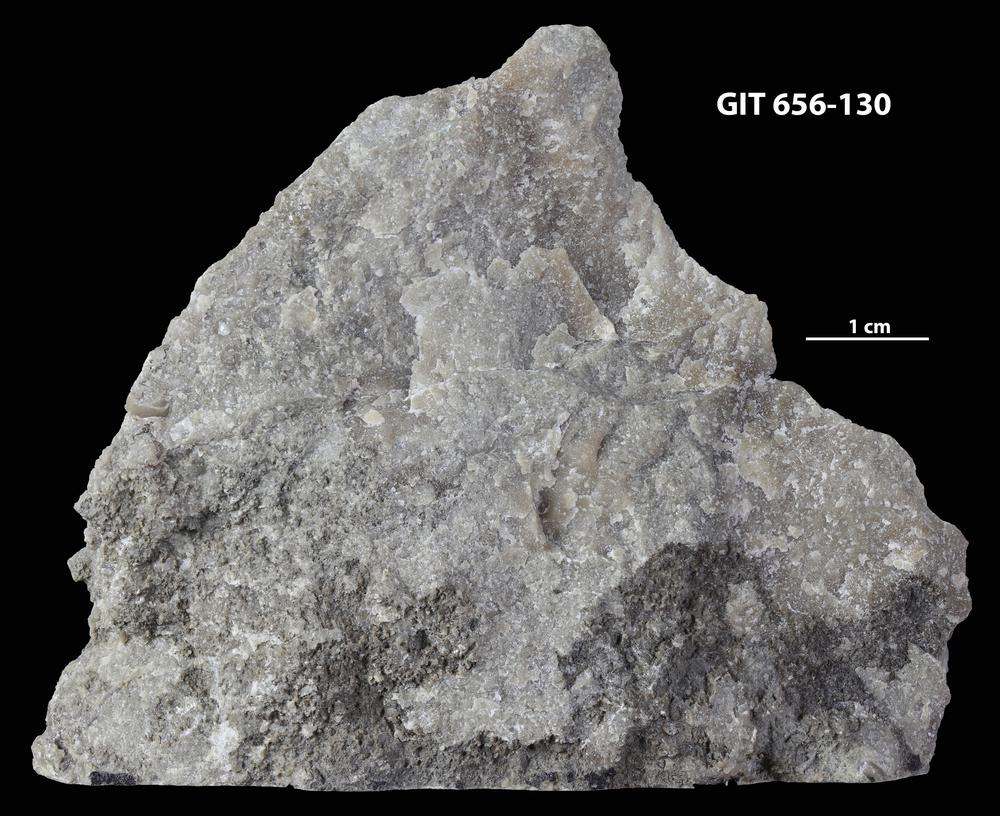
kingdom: Animalia
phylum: Porifera
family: Syringostromellidae
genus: Syringostromella
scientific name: Syringostromella
